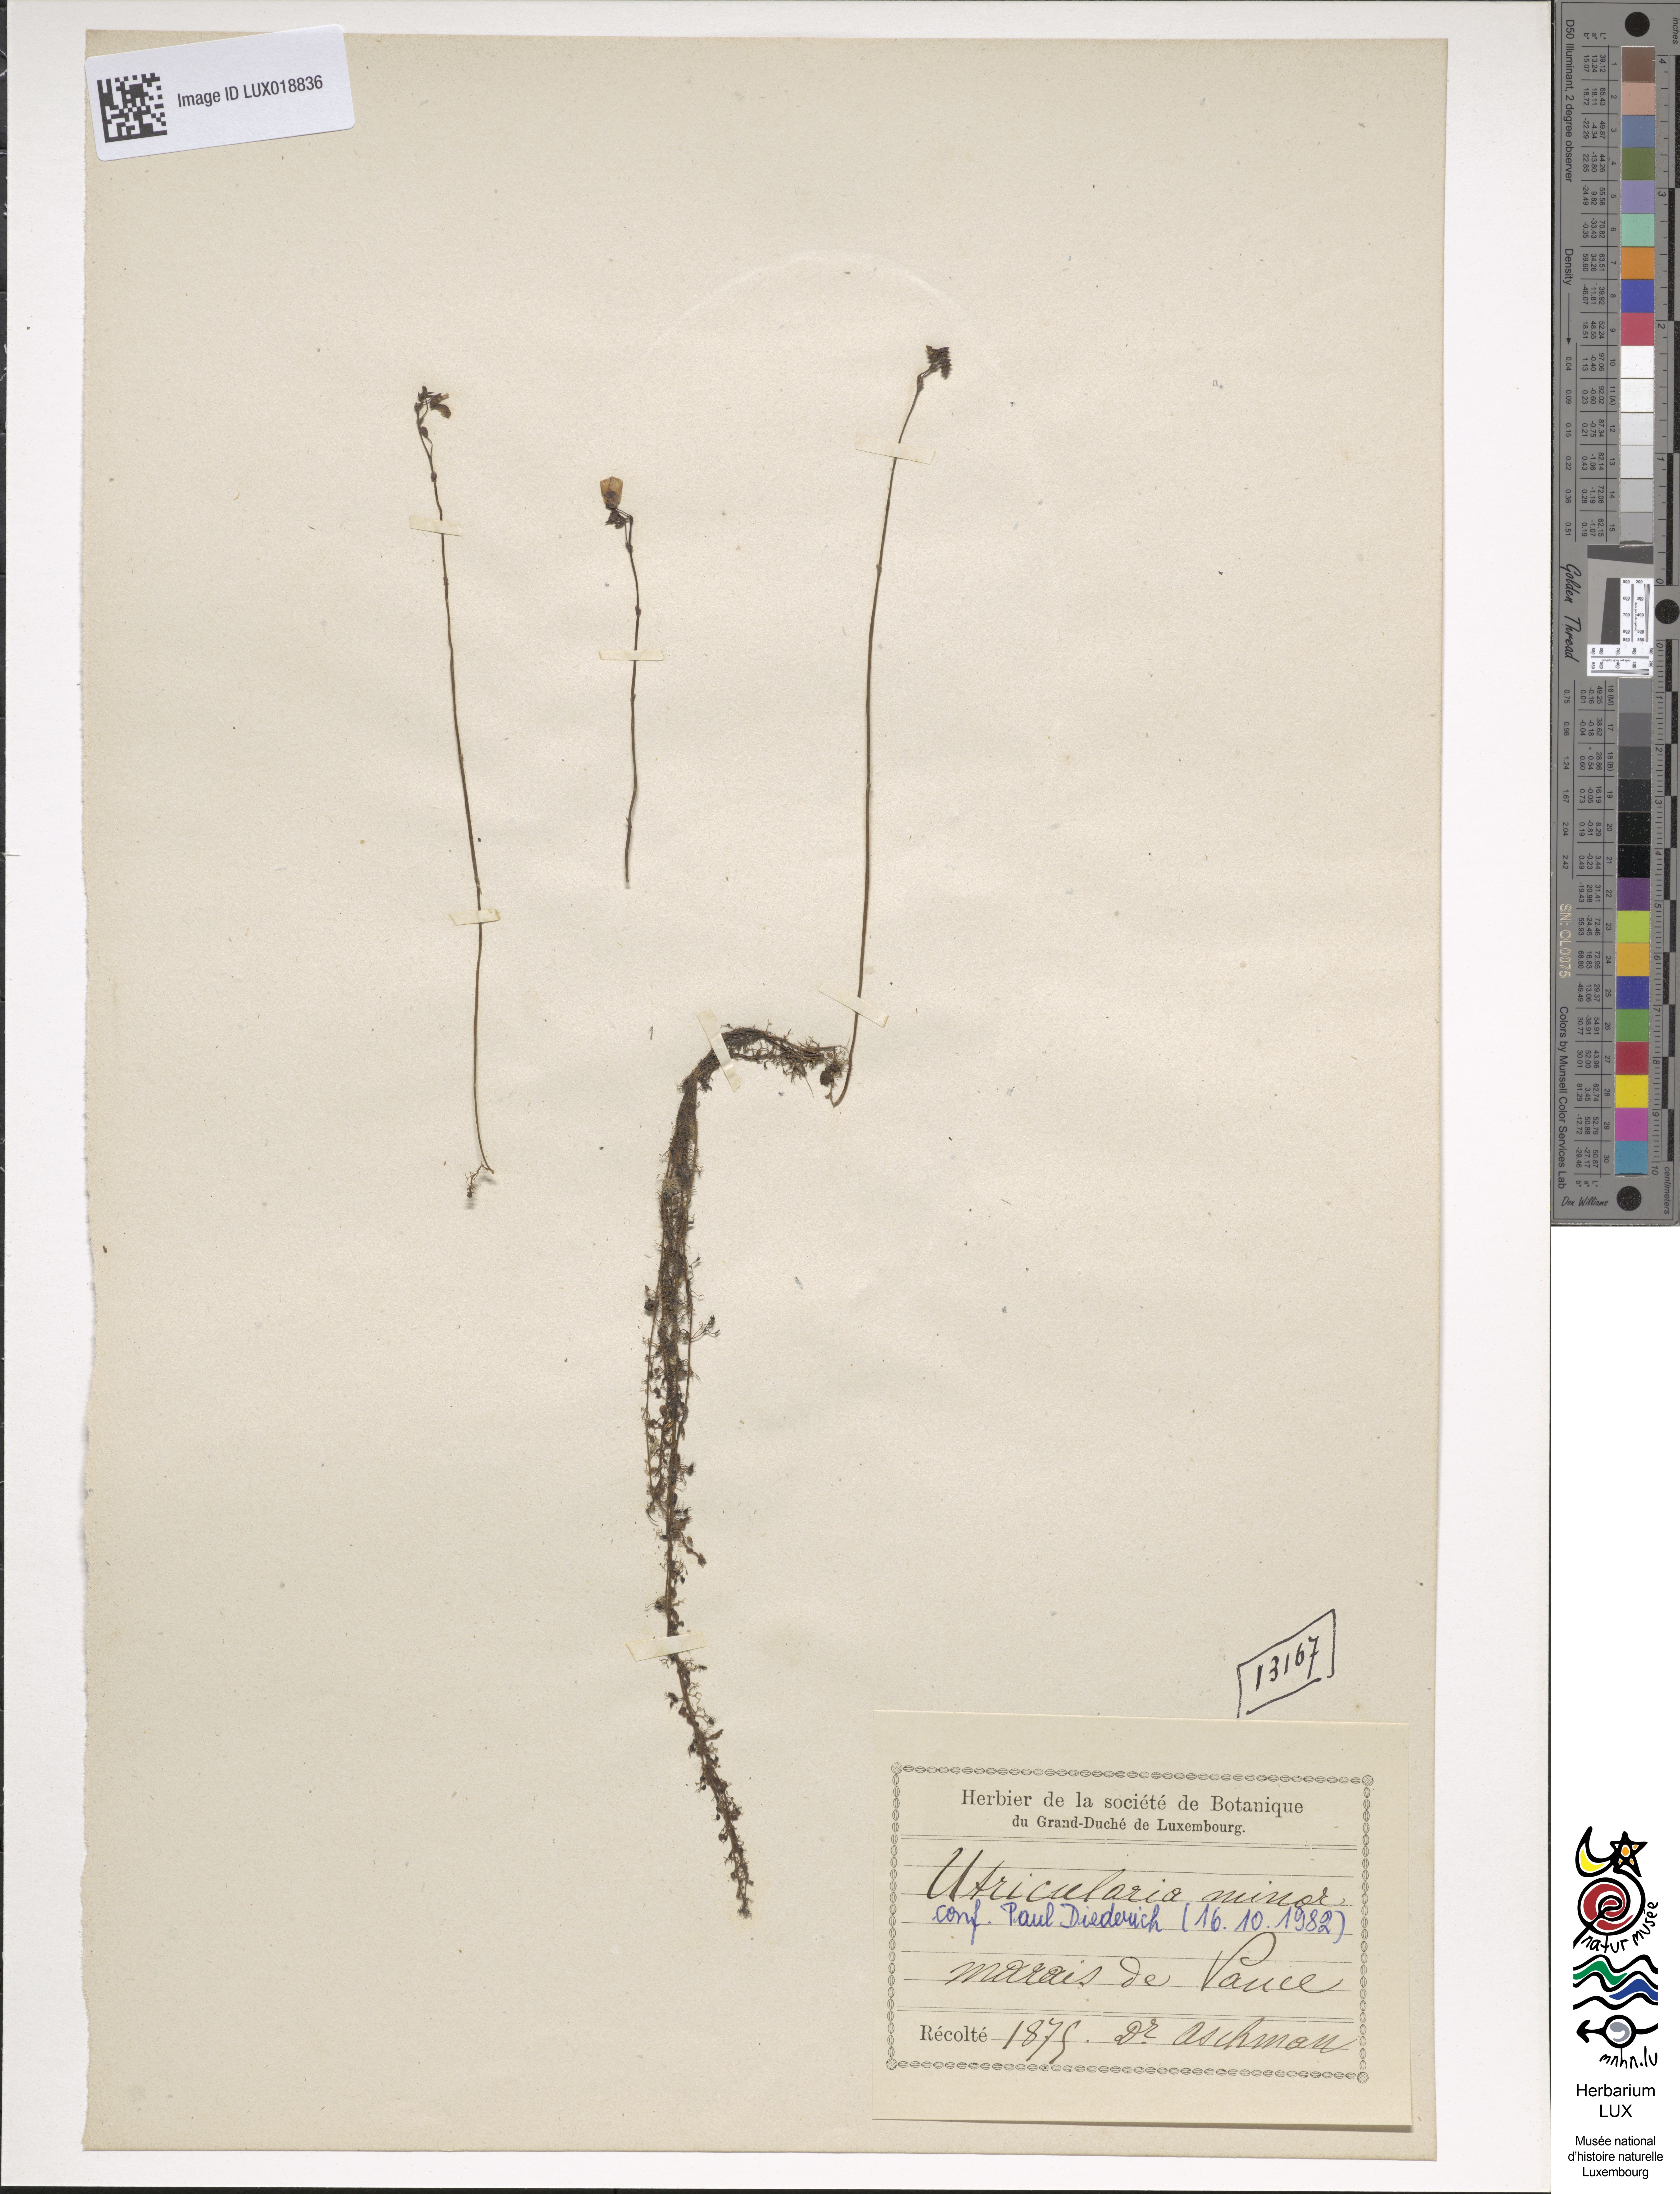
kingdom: Plantae
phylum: Tracheophyta
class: Magnoliopsida
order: Lamiales
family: Lentibulariaceae
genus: Utricularia
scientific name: Utricularia minor
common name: Lesser bladderwort
